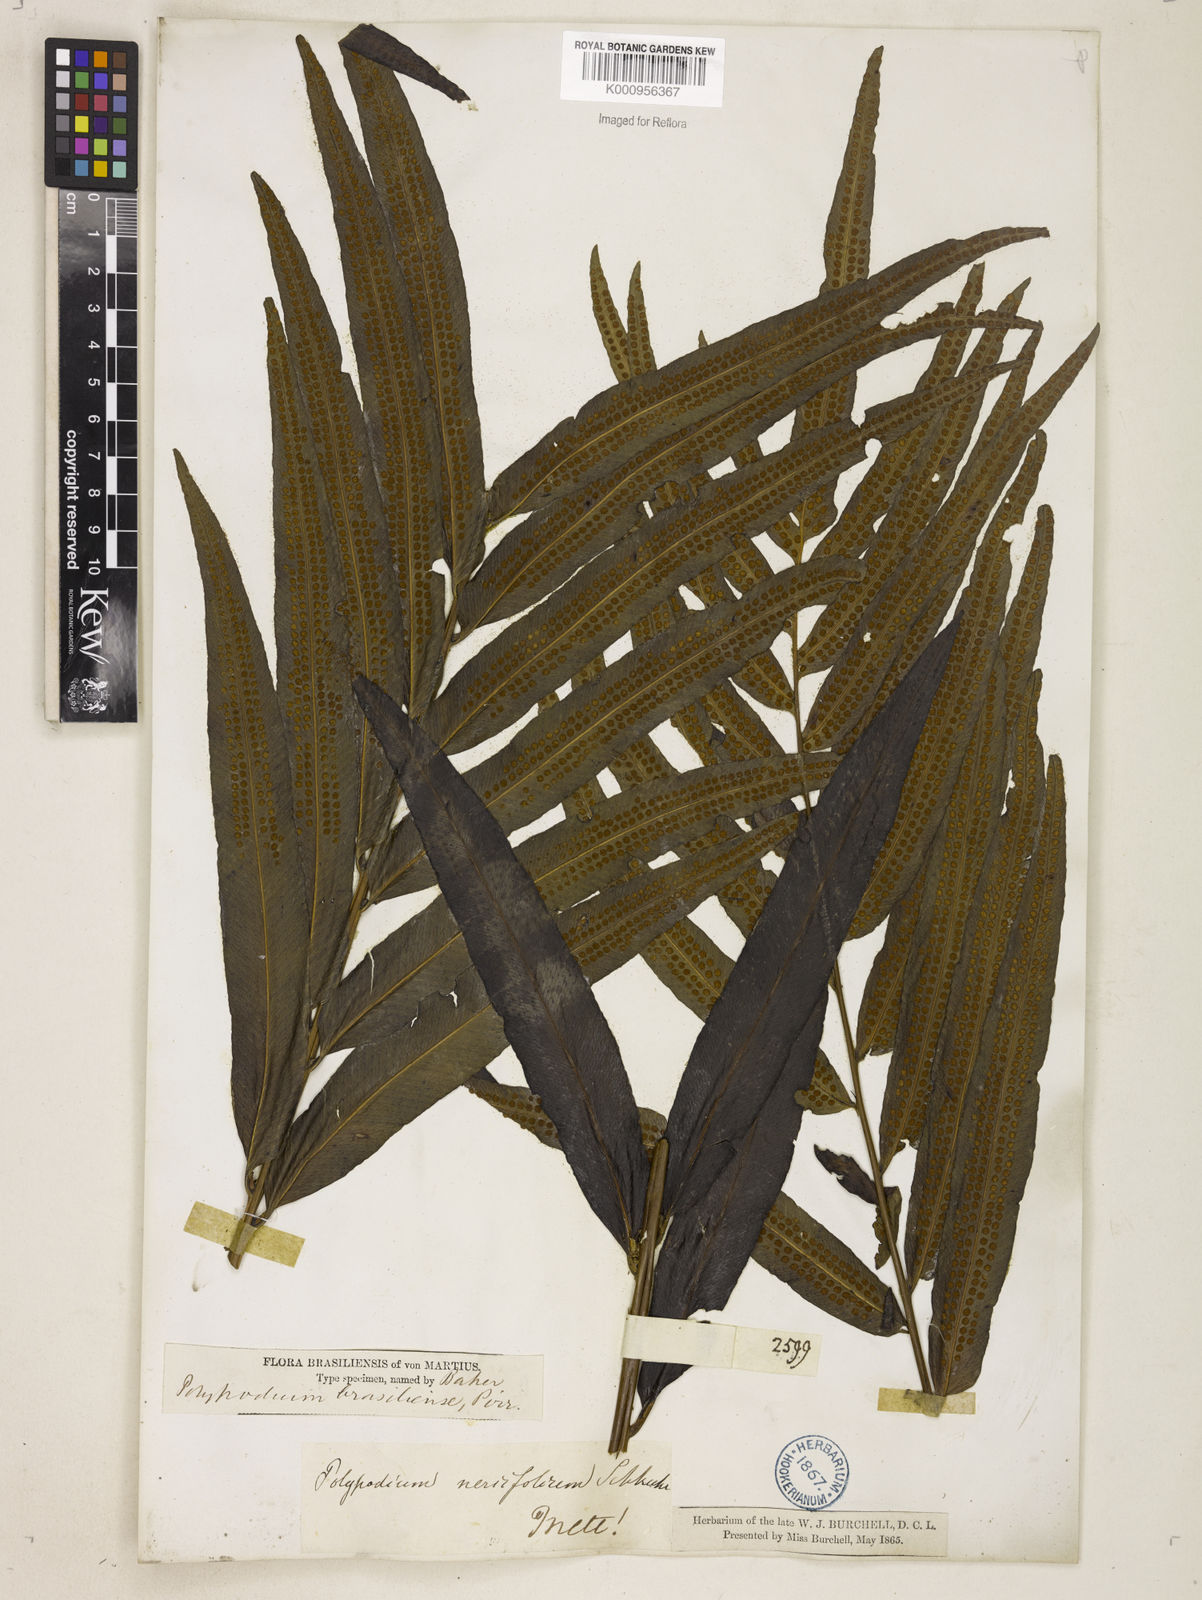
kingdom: Plantae
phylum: Tracheophyta
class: Polypodiopsida
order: Polypodiales
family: Polypodiaceae
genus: Serpocaulon
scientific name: Serpocaulon triseriale
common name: Angle-vein fern
